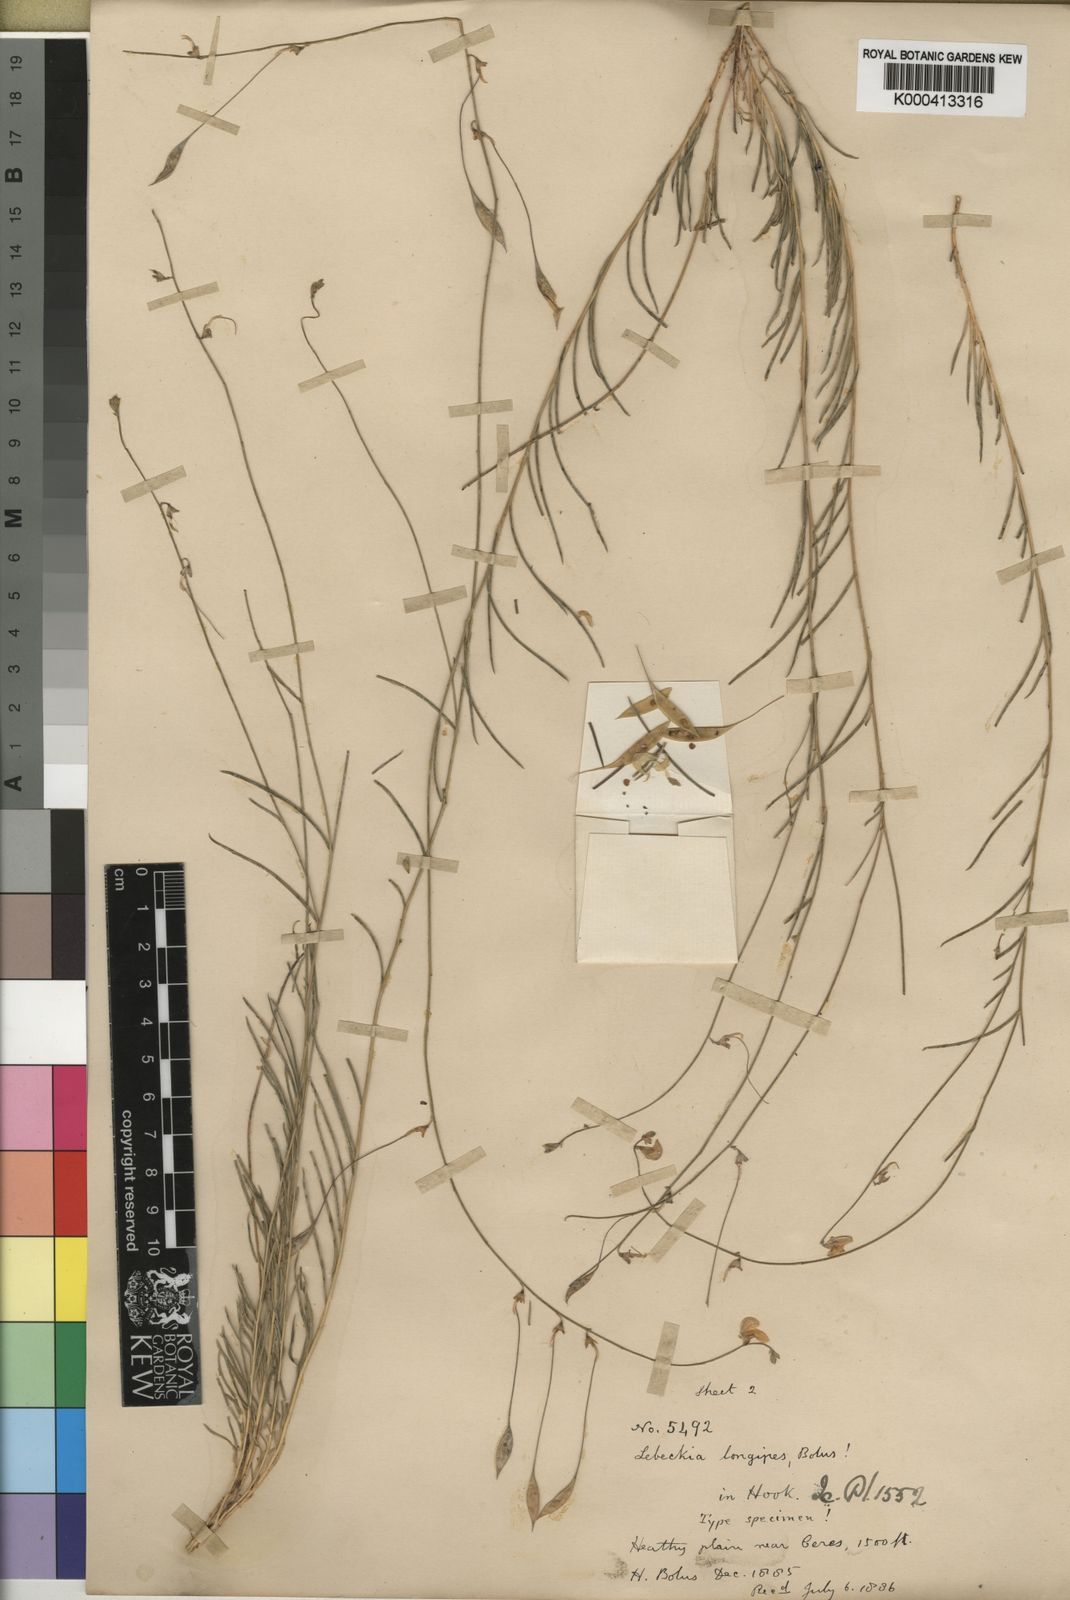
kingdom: Plantae
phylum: Tracheophyta
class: Magnoliopsida
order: Fabales
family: Fabaceae
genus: Lebeckia
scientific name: Lebeckia longipes
